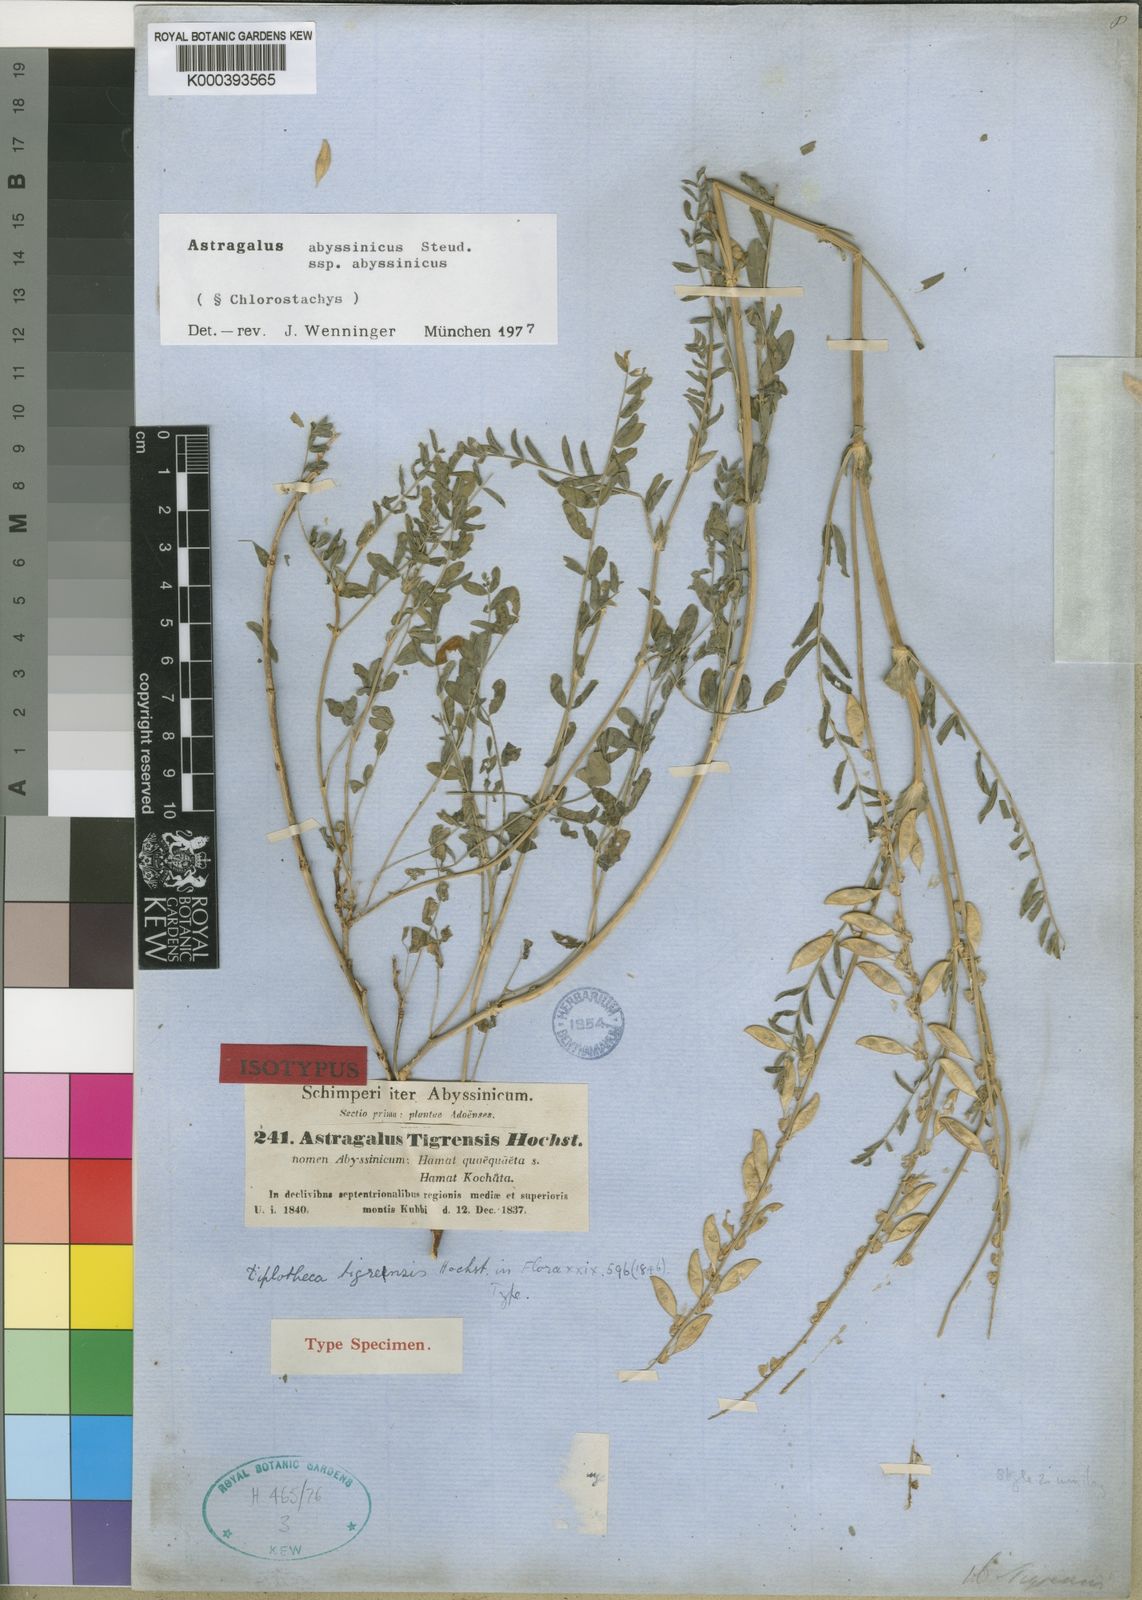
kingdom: Plantae
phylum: Tracheophyta
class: Magnoliopsida
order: Fabales
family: Fabaceae
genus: Astragalus
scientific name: Astragalus atropilosulus
